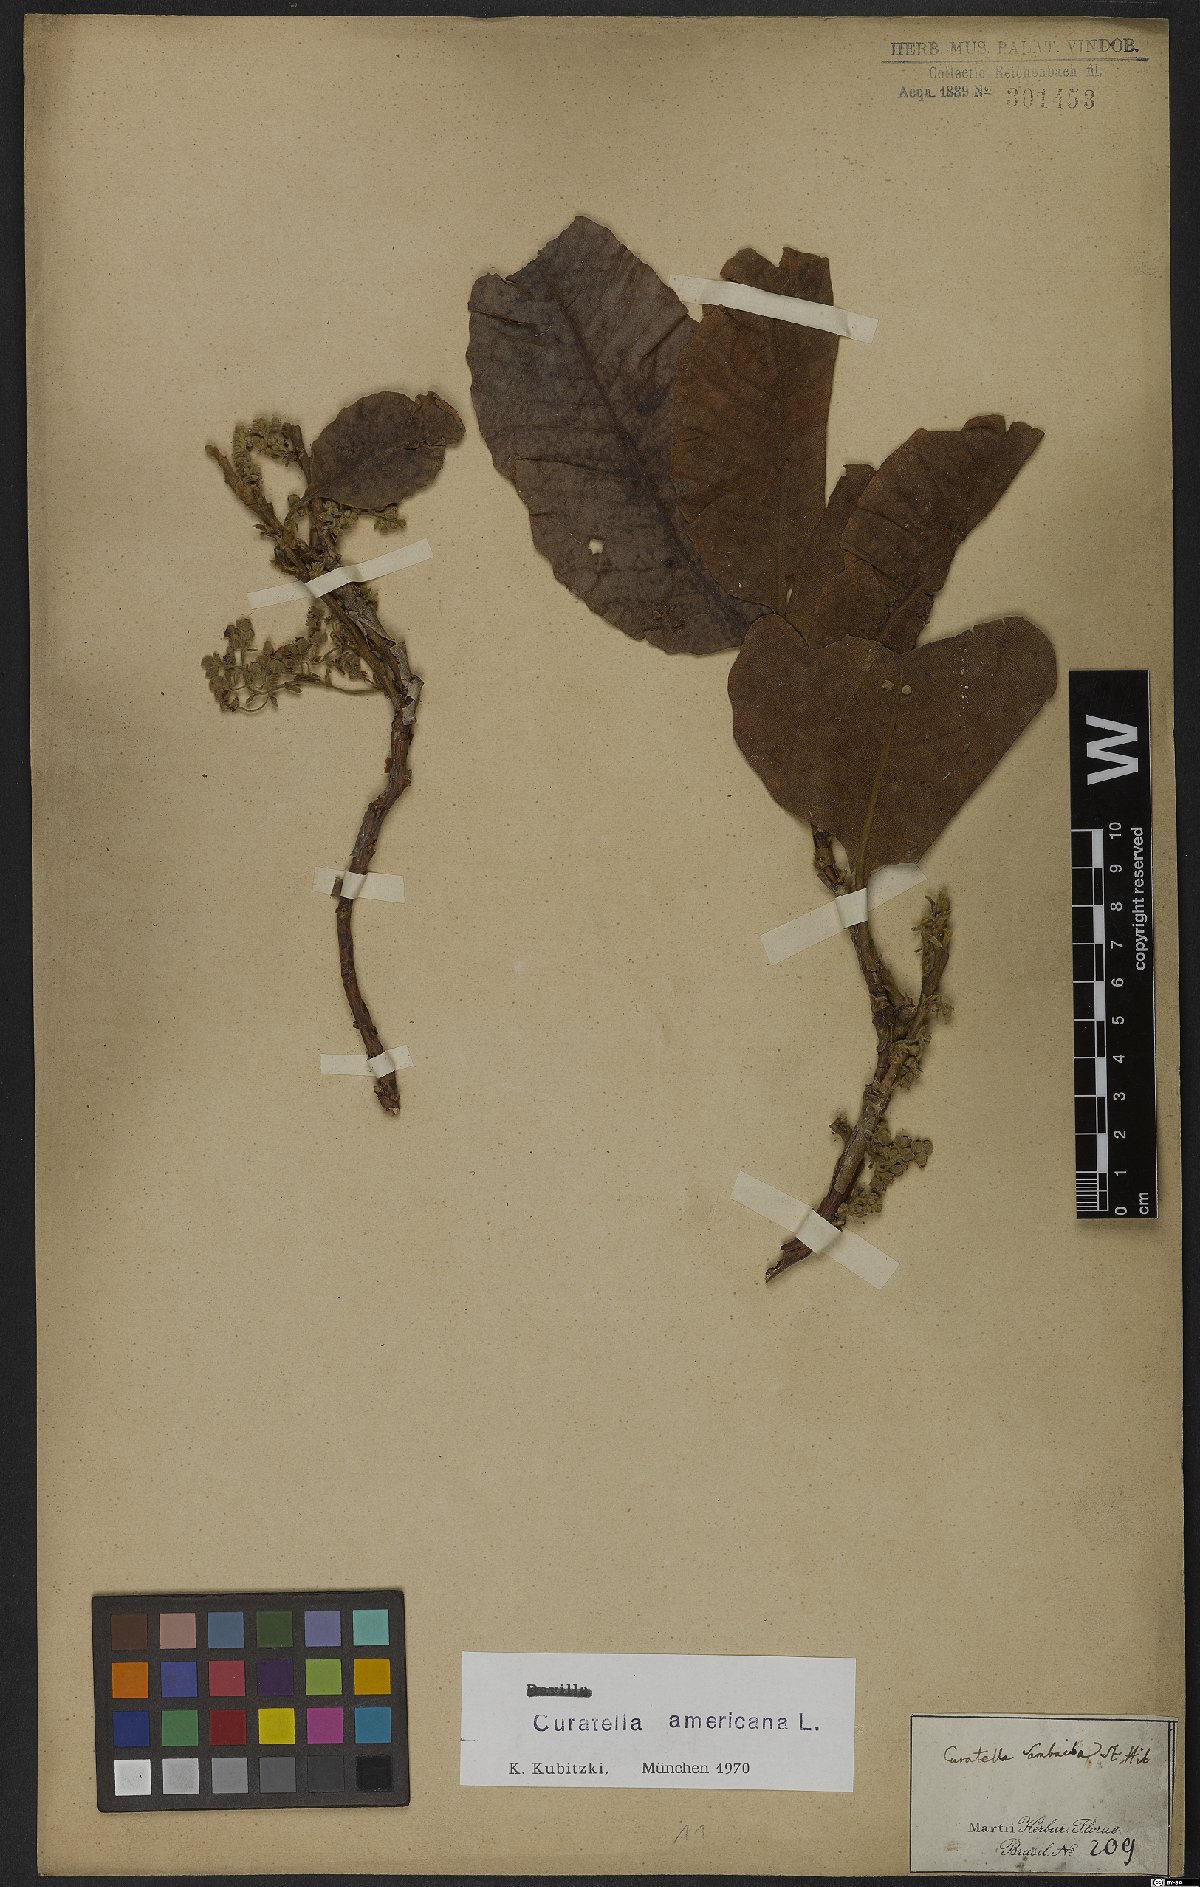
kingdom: Plantae
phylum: Tracheophyta
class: Magnoliopsida
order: Dilleniales
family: Dilleniaceae
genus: Curatella
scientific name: Curatella americana
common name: Sandpaper tree
